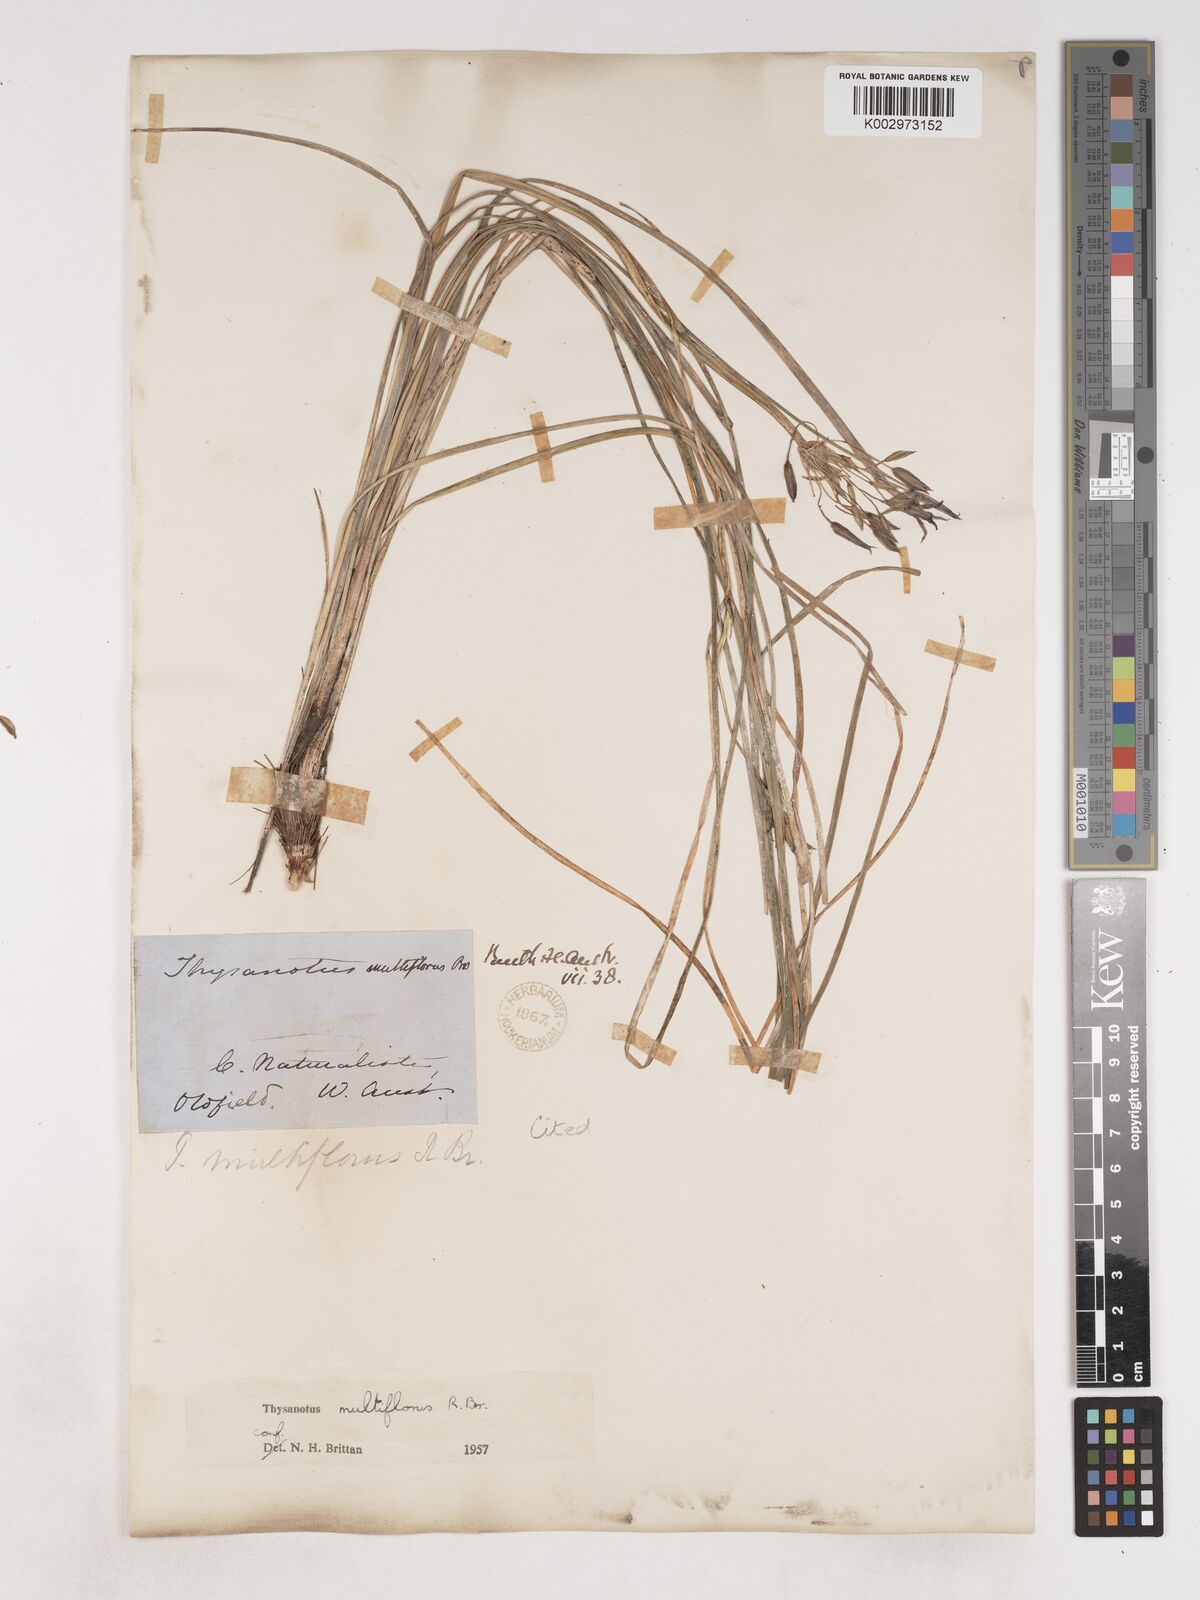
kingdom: Plantae
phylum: Tracheophyta
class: Liliopsida
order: Asparagales
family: Asparagaceae
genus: Thysanotus
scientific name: Thysanotus multiflorus
